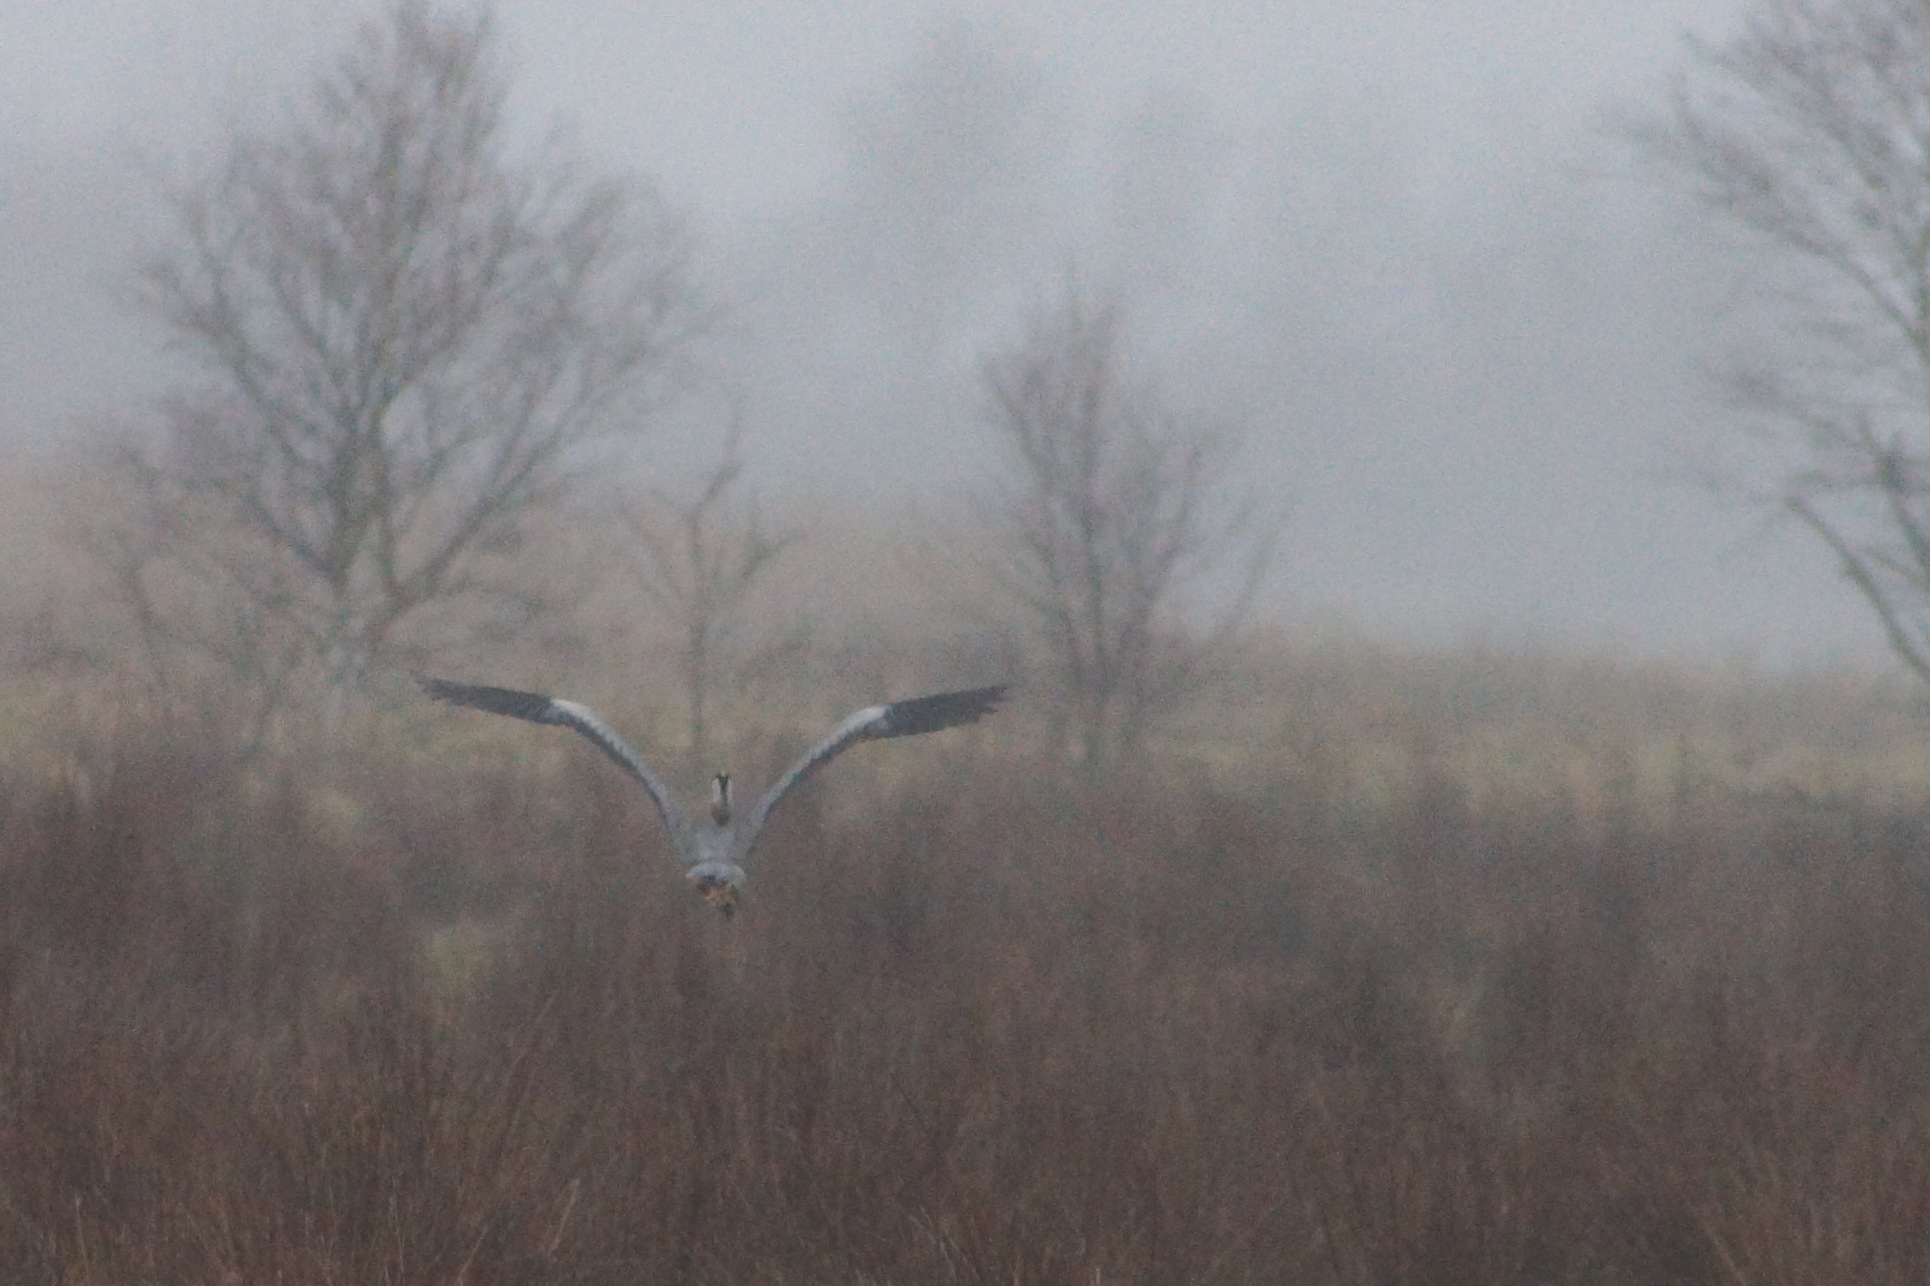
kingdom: Animalia
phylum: Chordata
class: Aves
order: Pelecaniformes
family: Ardeidae
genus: Ardea
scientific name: Ardea cinerea
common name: Fiskehejre
